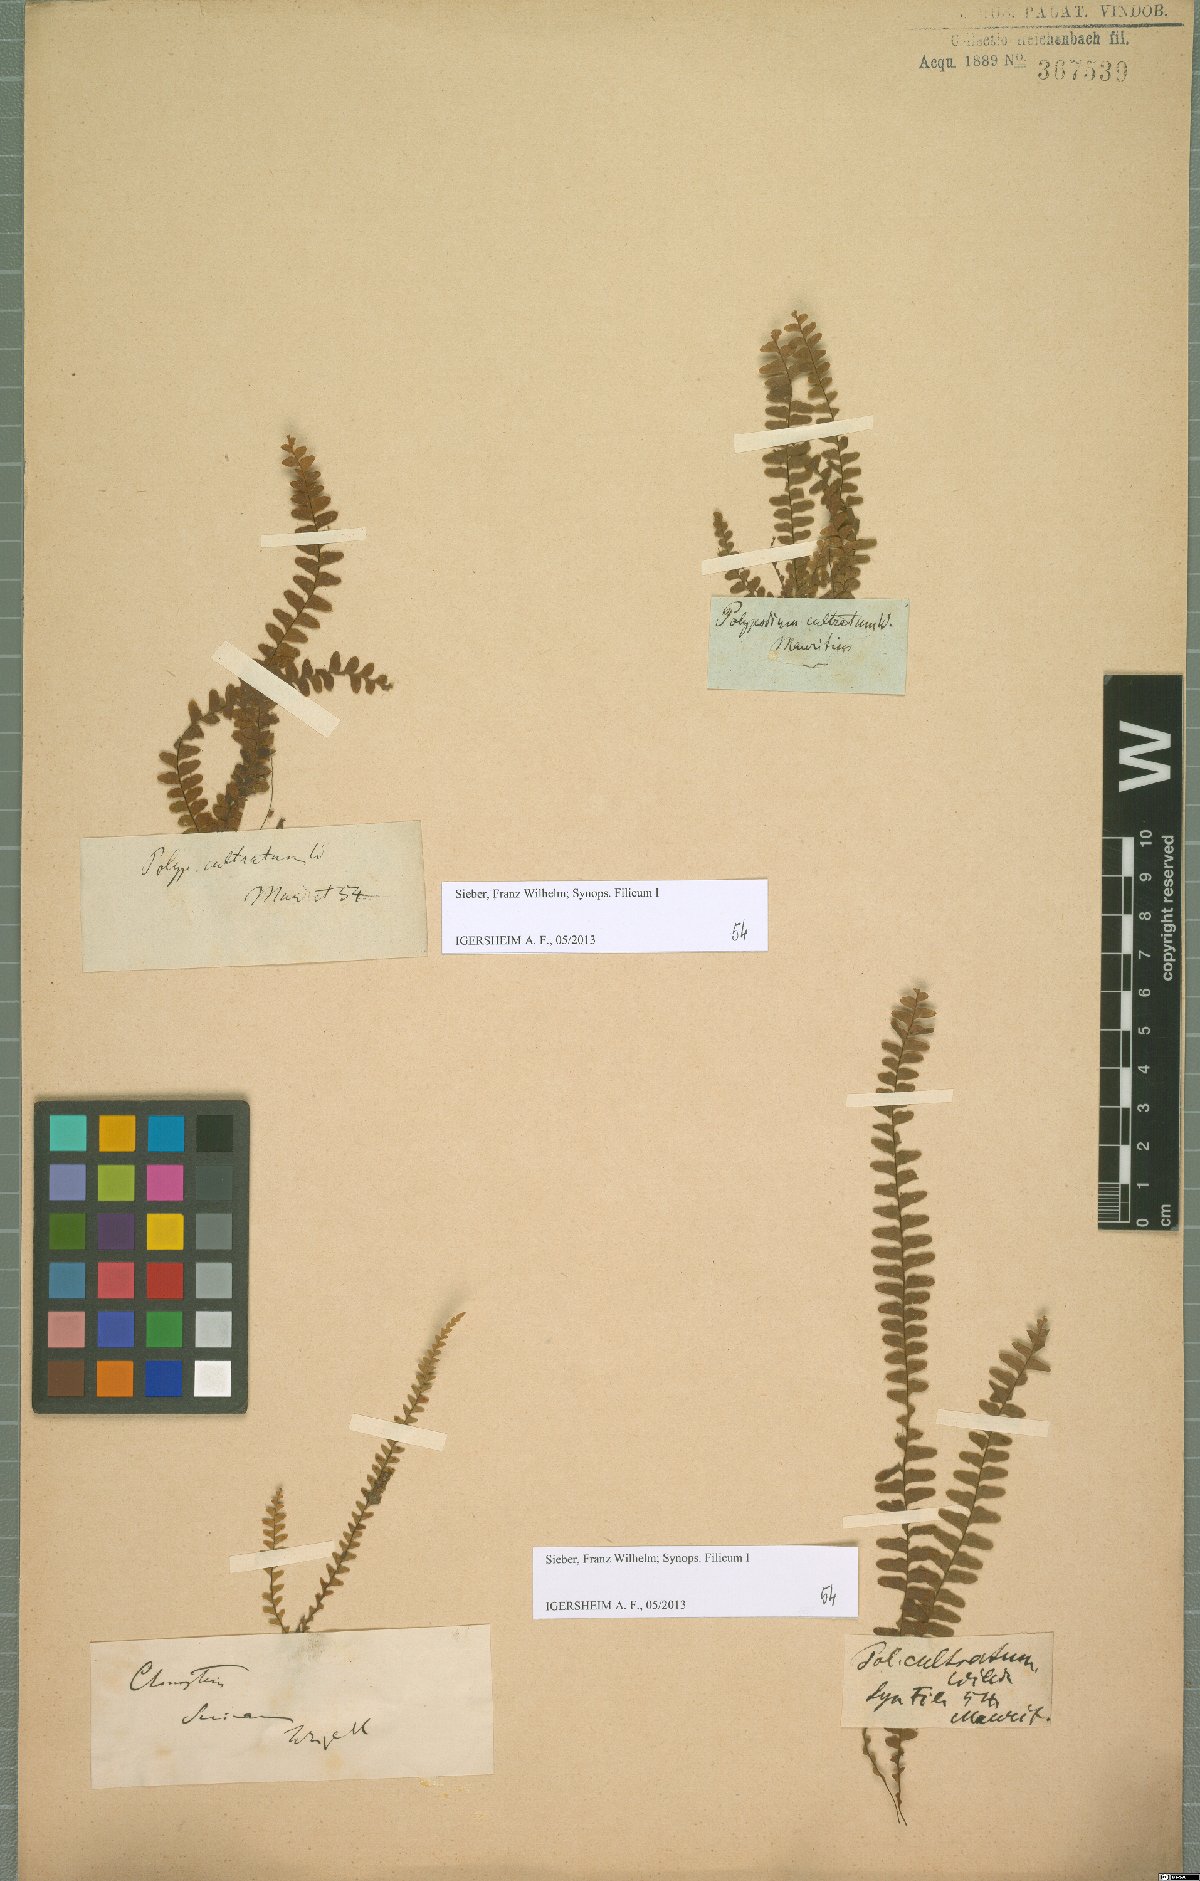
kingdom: Plantae
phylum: Tracheophyta
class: Polypodiopsida
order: Polypodiales
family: Polypodiaceae
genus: Alansmia
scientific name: Alansmia elastica
